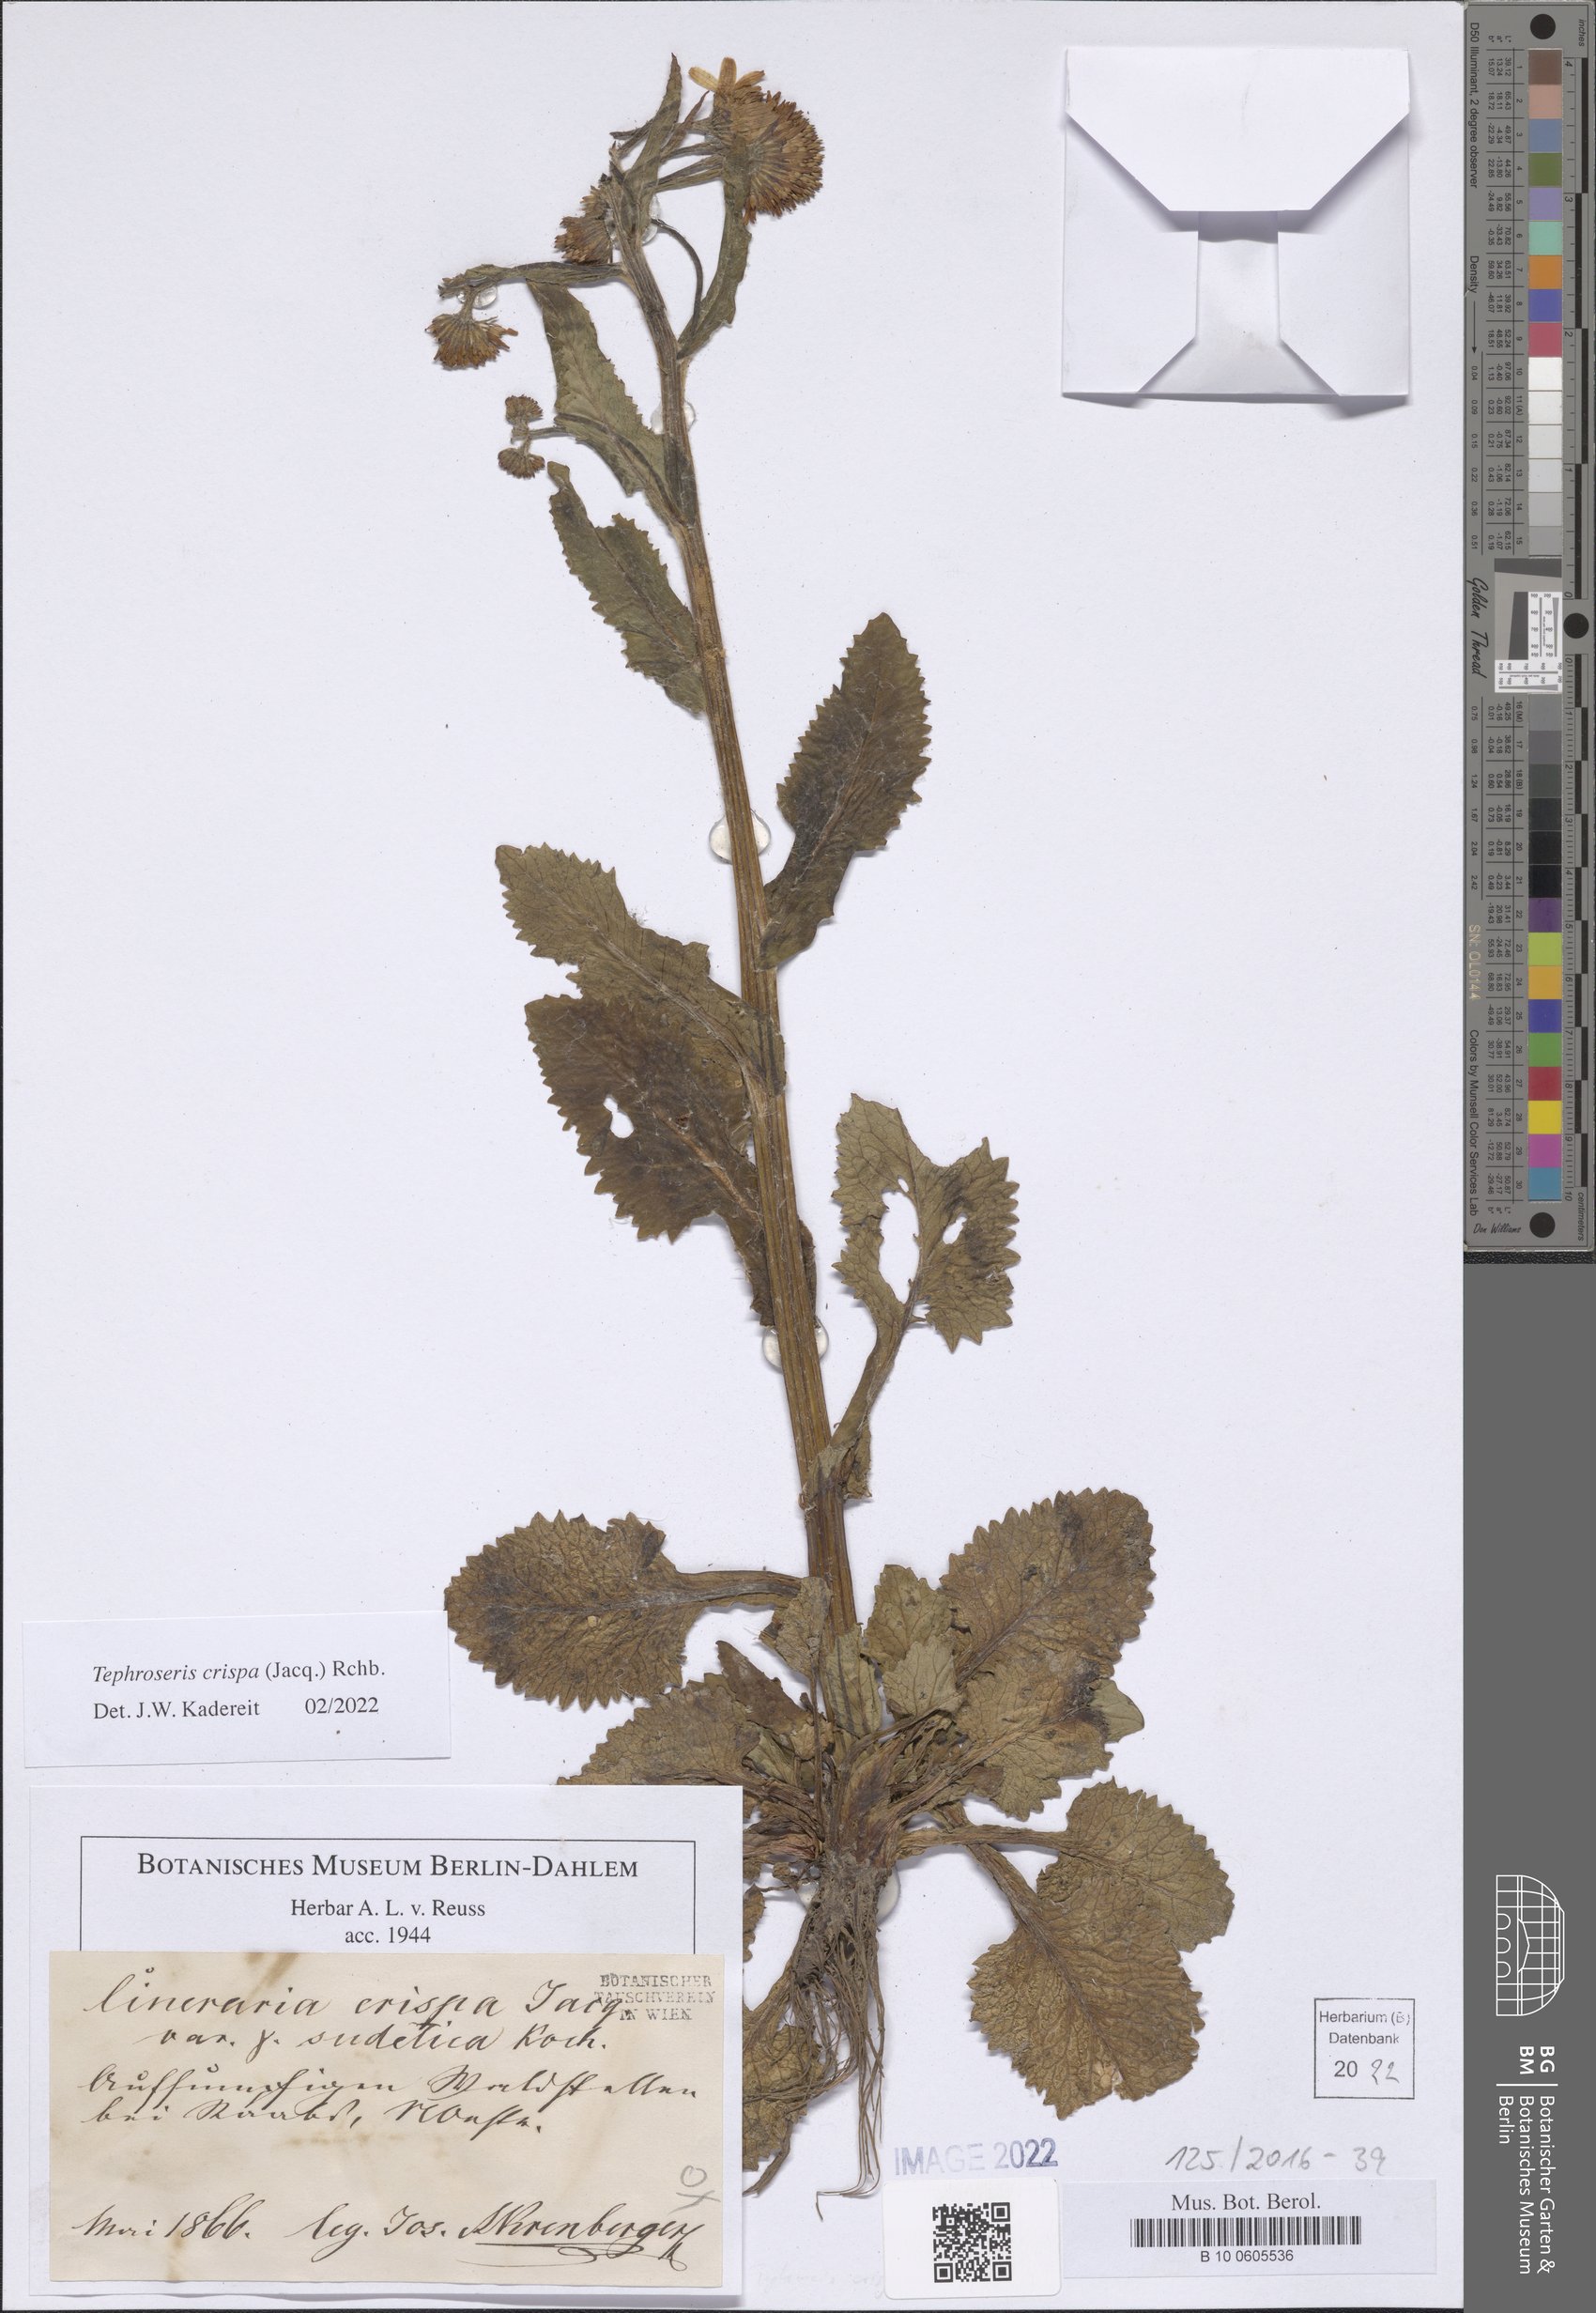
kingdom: Plantae
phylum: Tracheophyta
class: Magnoliopsida
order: Asterales
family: Asteraceae
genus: Tephroseris
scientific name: Tephroseris crispa
